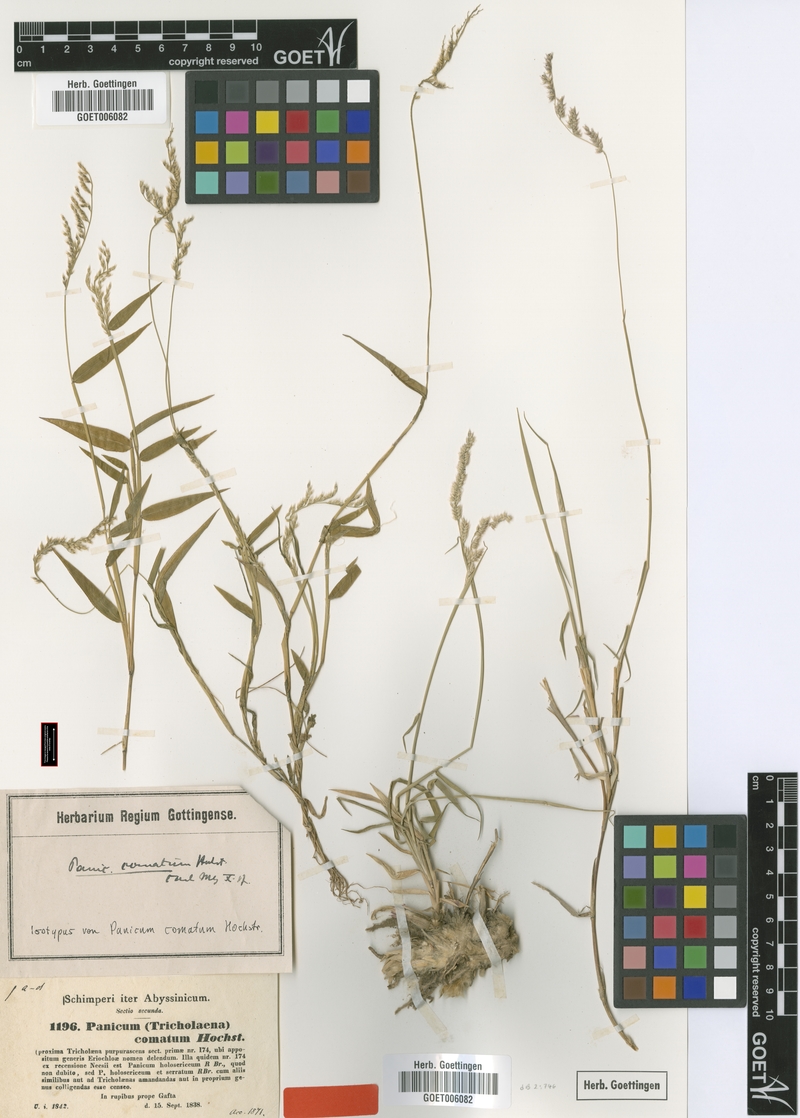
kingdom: Plantae
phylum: Tracheophyta
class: Liliopsida
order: Poales
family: Poaceae
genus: Urochloa
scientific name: Urochloa comata
